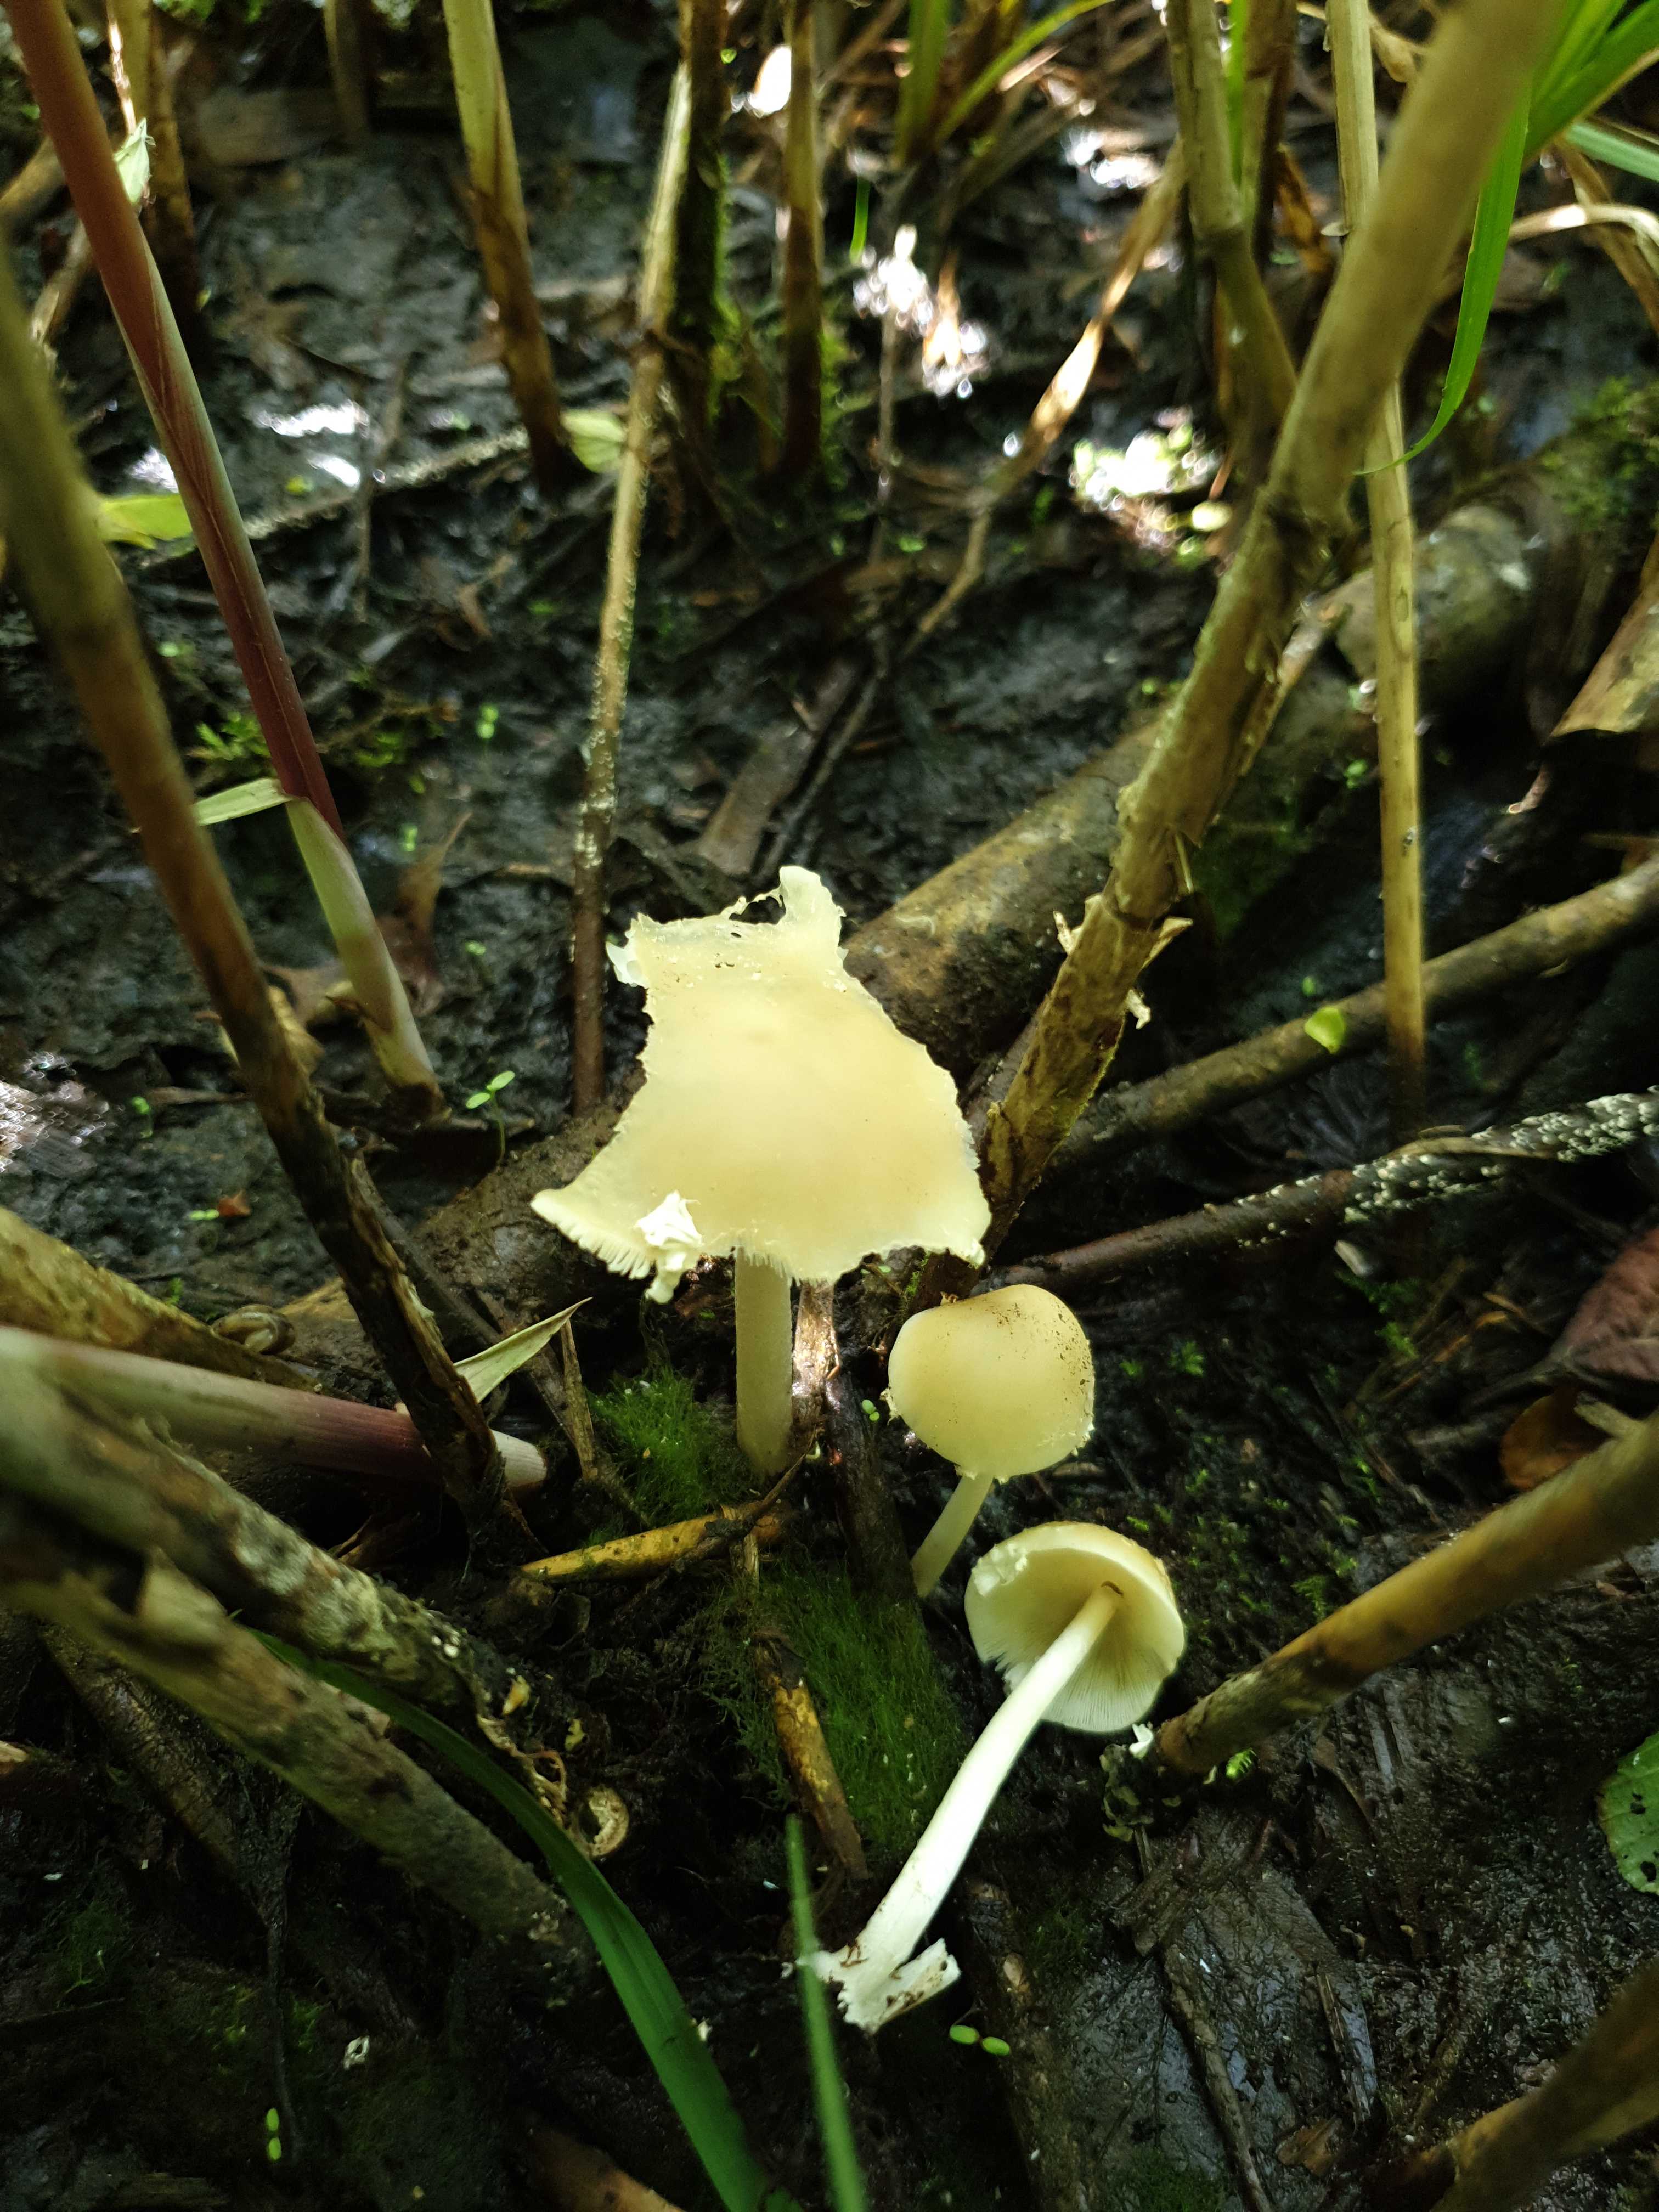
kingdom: Fungi
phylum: Basidiomycota
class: Agaricomycetes
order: Agaricales
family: Psathyrellaceae
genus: Psathyrella
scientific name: Psathyrella
